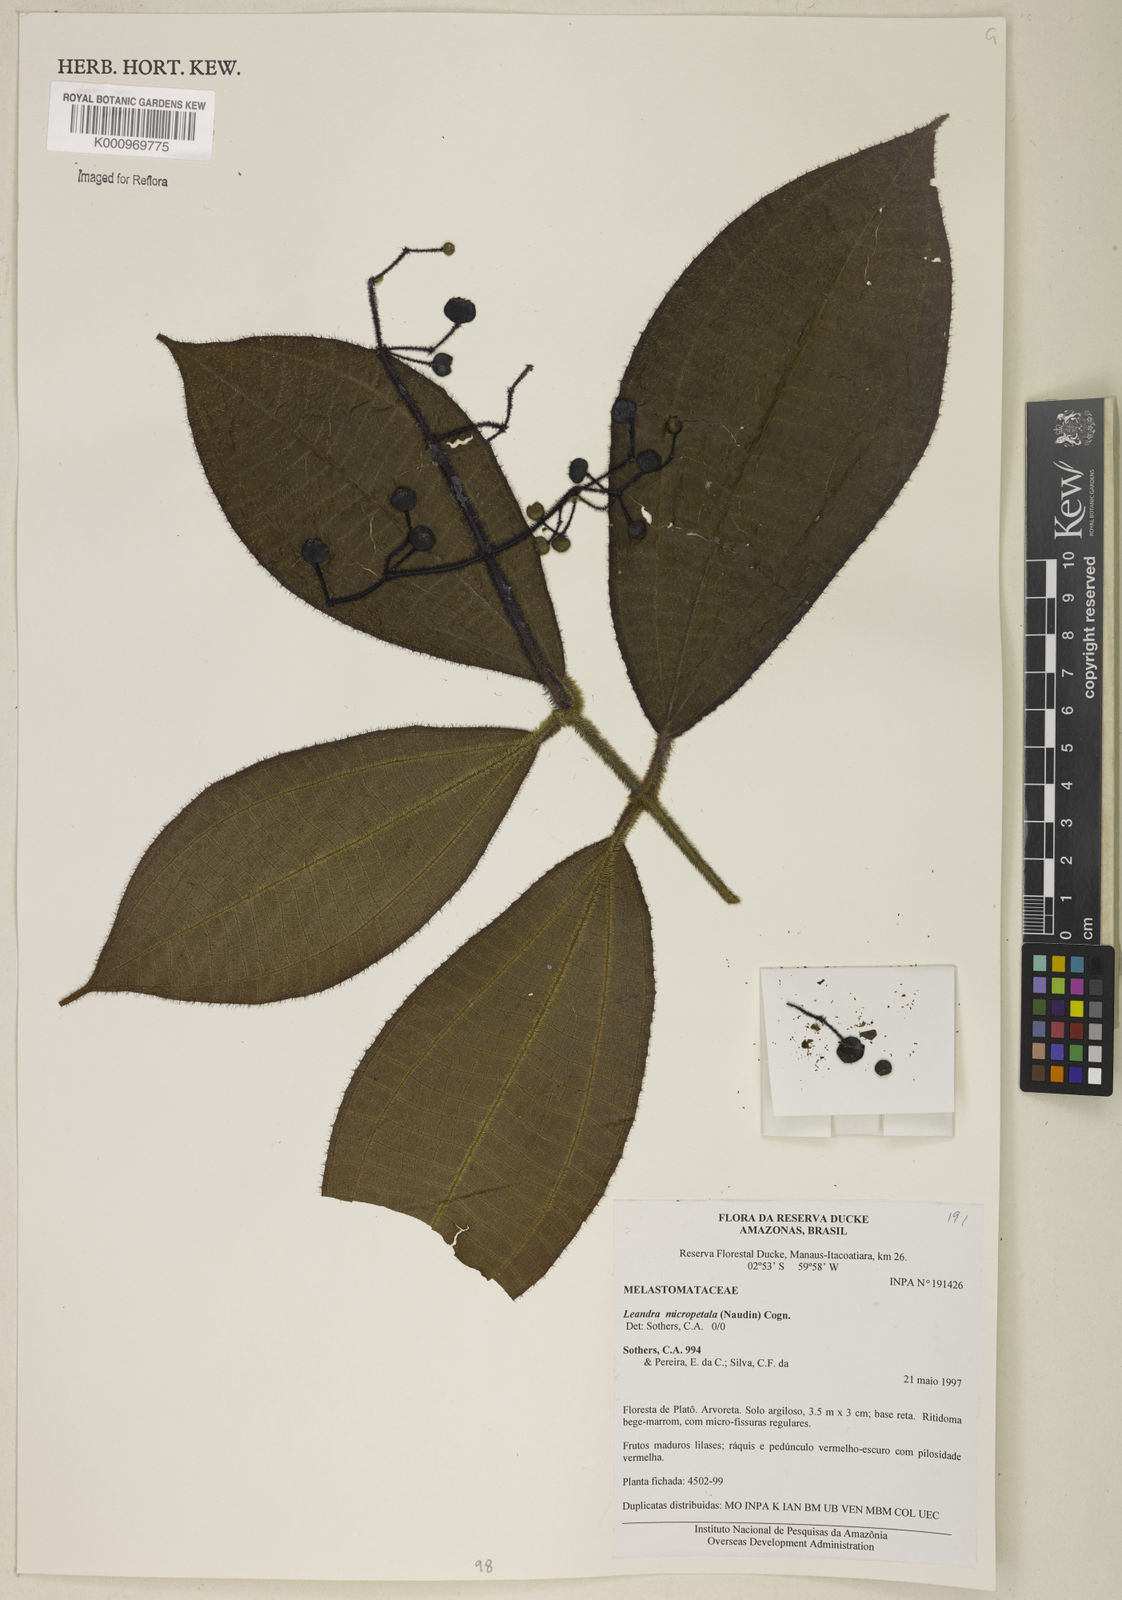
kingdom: Plantae
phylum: Tracheophyta
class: Magnoliopsida
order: Myrtales
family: Melastomataceae
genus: Miconia
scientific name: Miconia nanopetala
